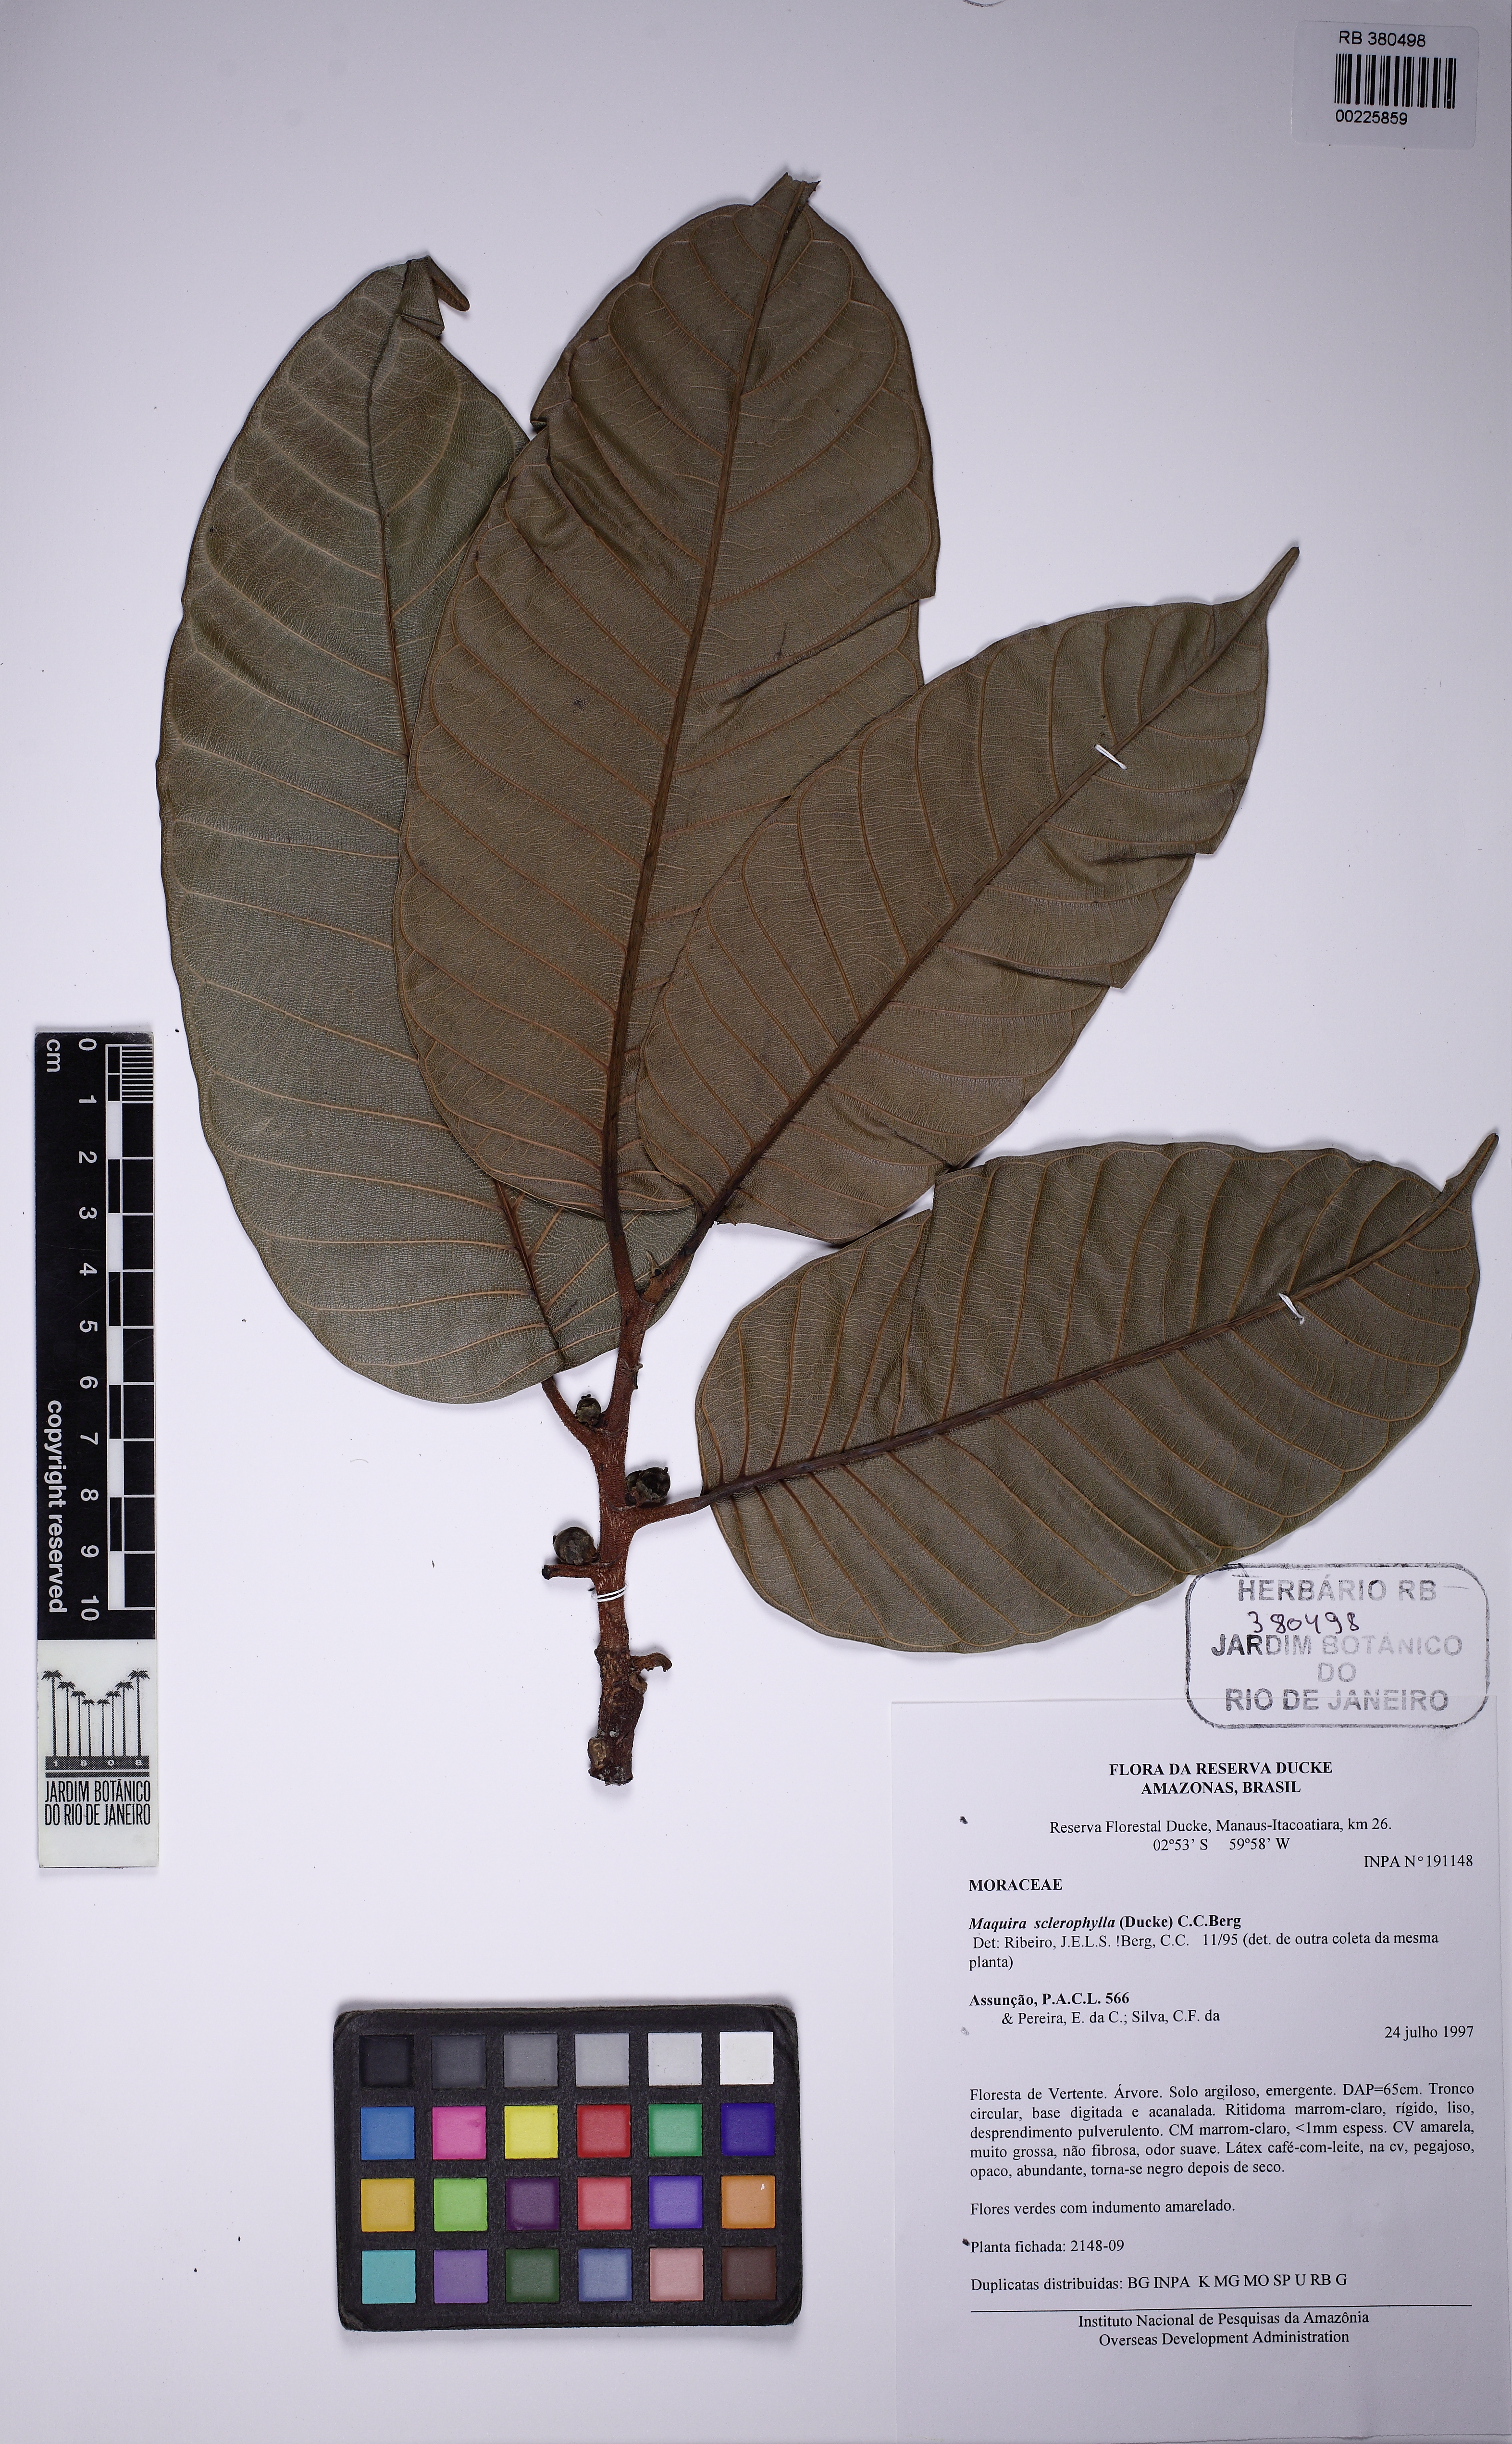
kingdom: Plantae
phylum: Tracheophyta
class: Magnoliopsida
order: Rosales
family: Moraceae
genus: Maquira
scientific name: Maquira sclerophylla
